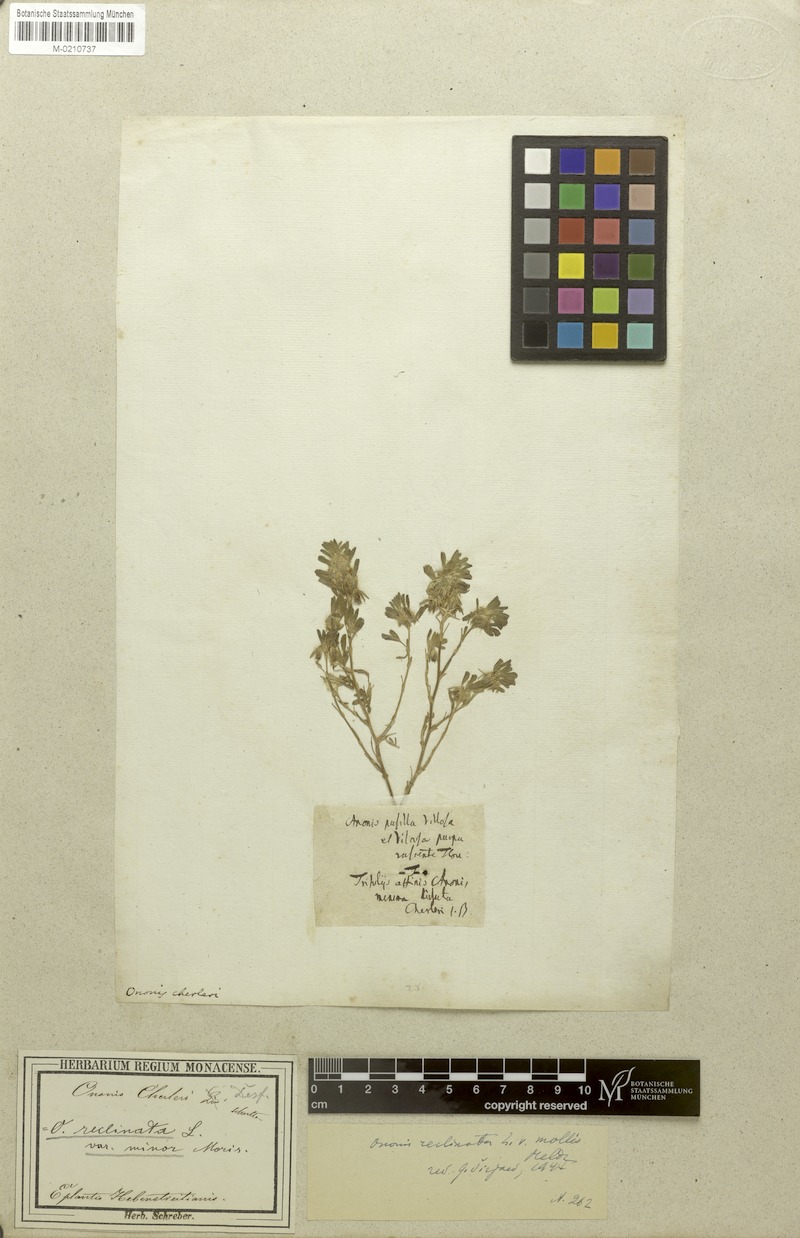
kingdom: Plantae
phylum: Tracheophyta
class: Magnoliopsida
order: Fabales
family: Fabaceae
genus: Ononis
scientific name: Ononis reclinata
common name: Small restharrow
